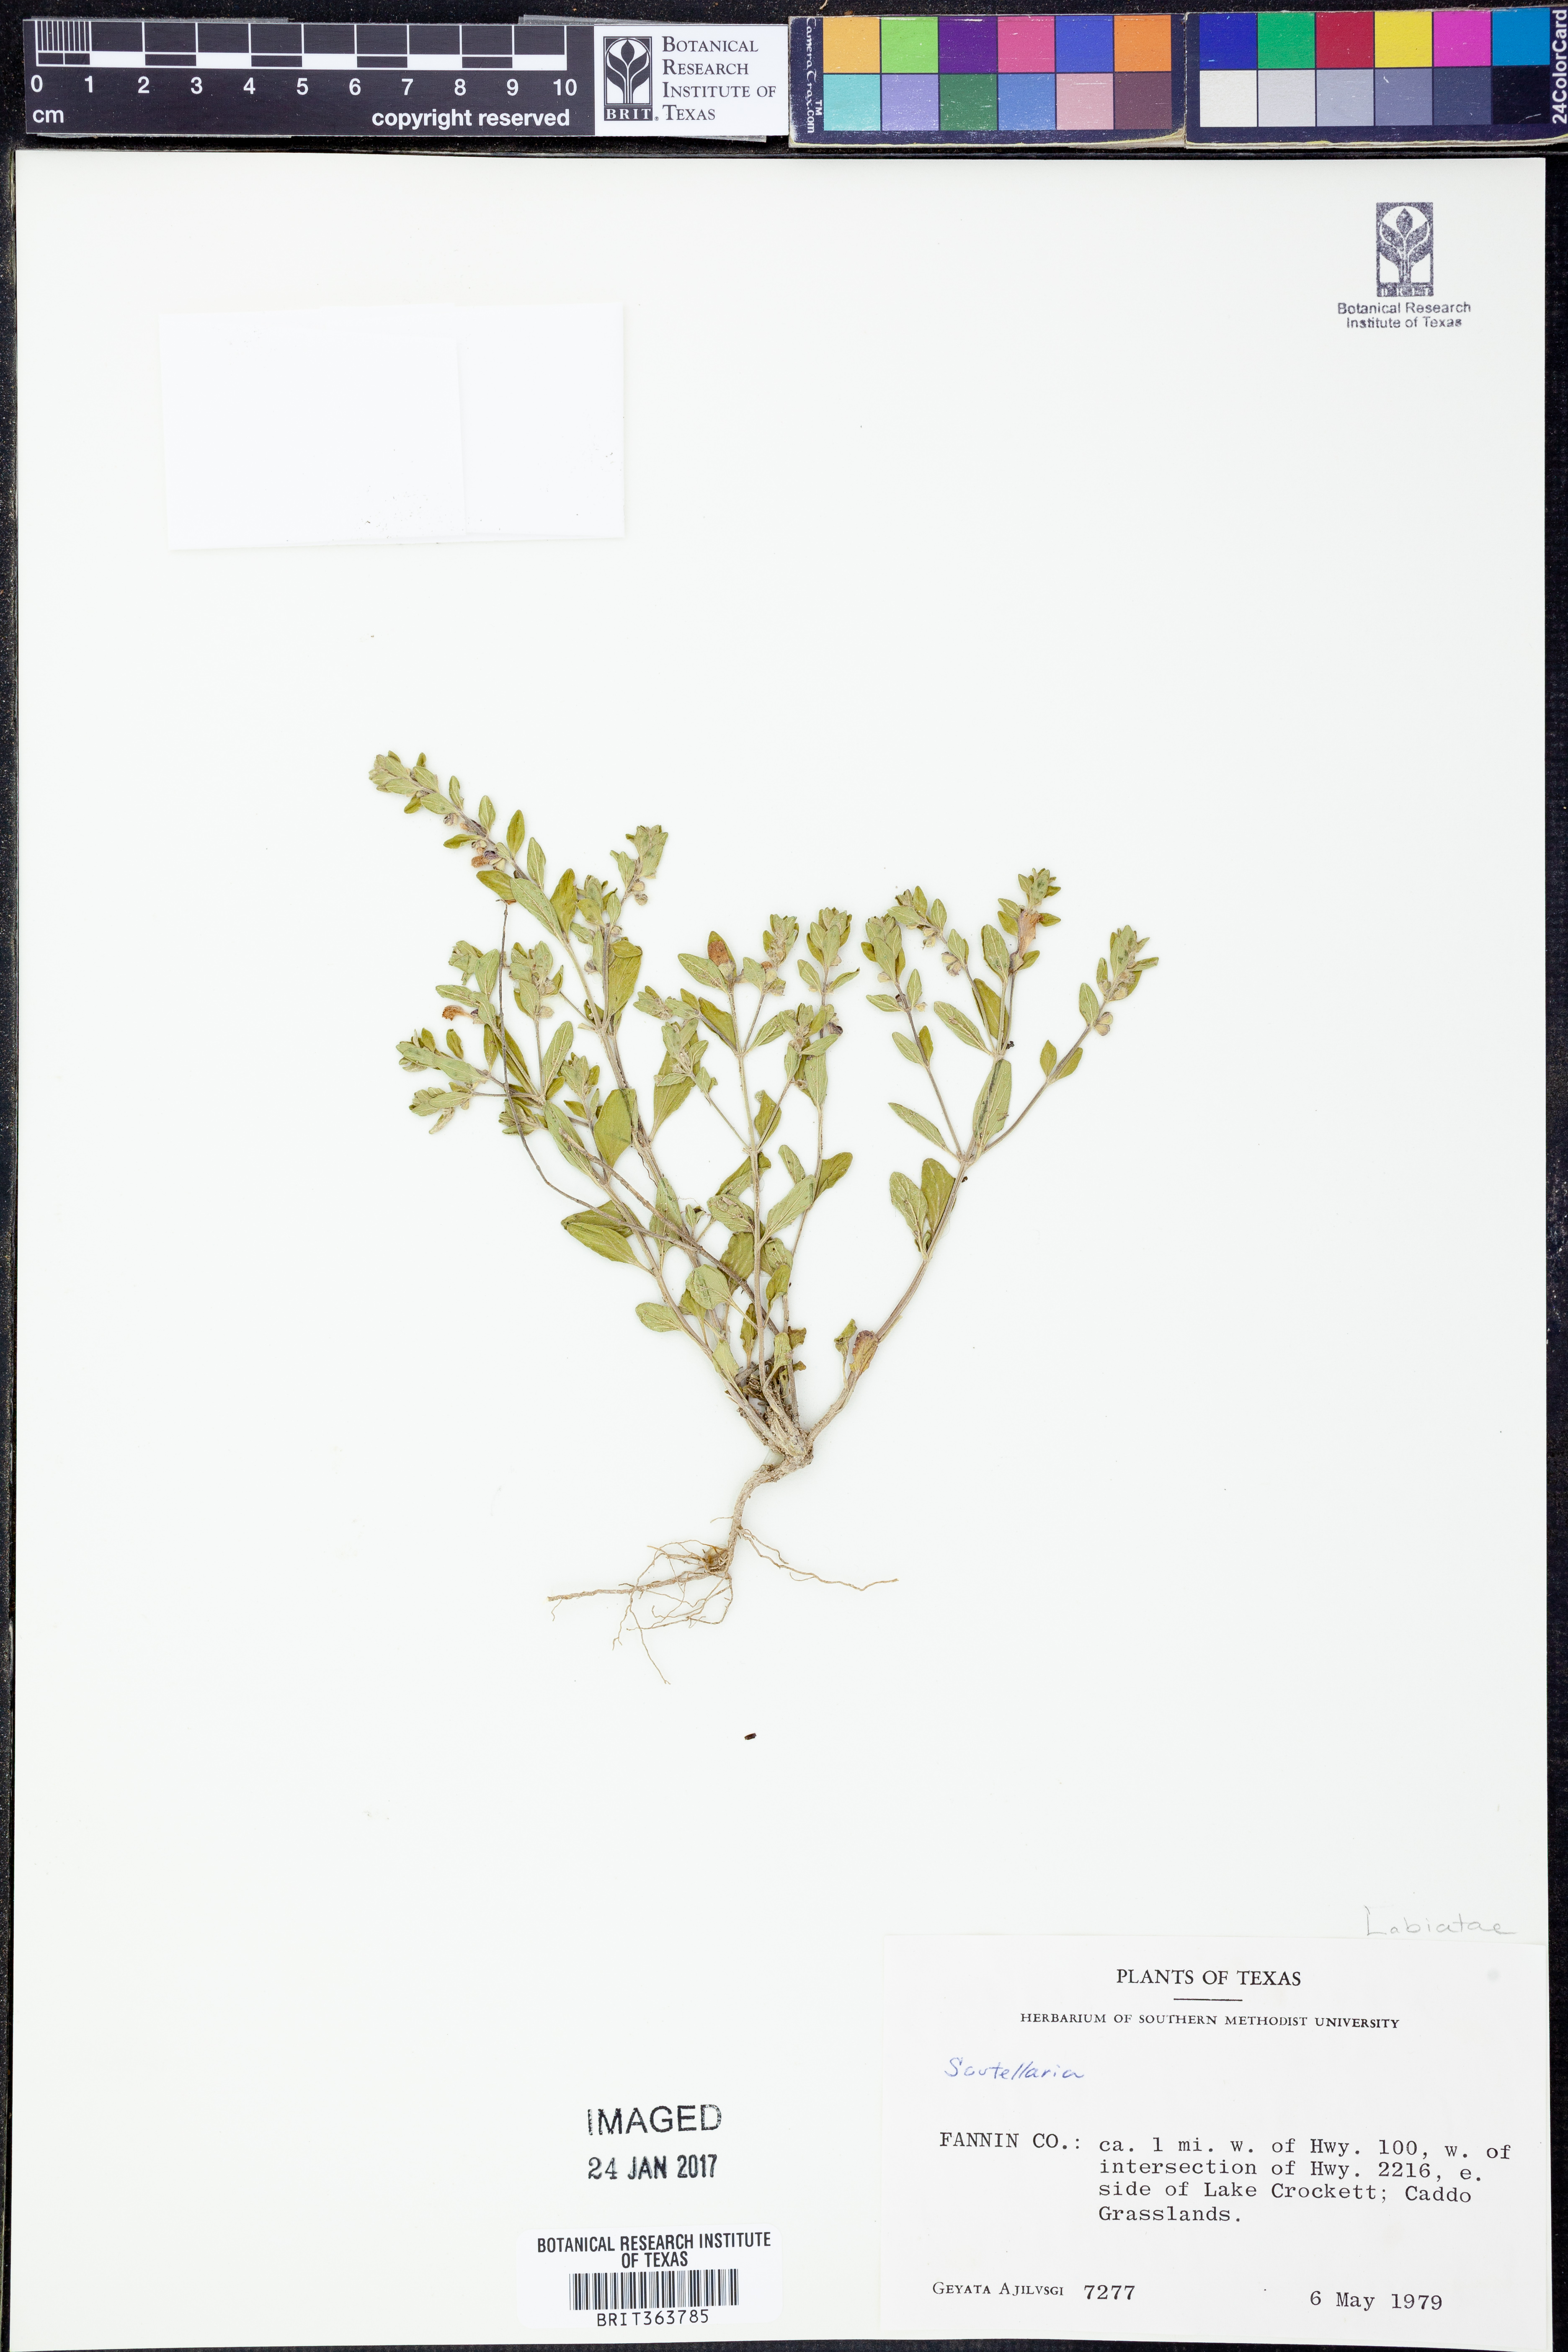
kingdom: Plantae
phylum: Tracheophyta
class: Magnoliopsida
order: Lamiales
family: Lamiaceae
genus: Scutellaria
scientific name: Scutellaria
